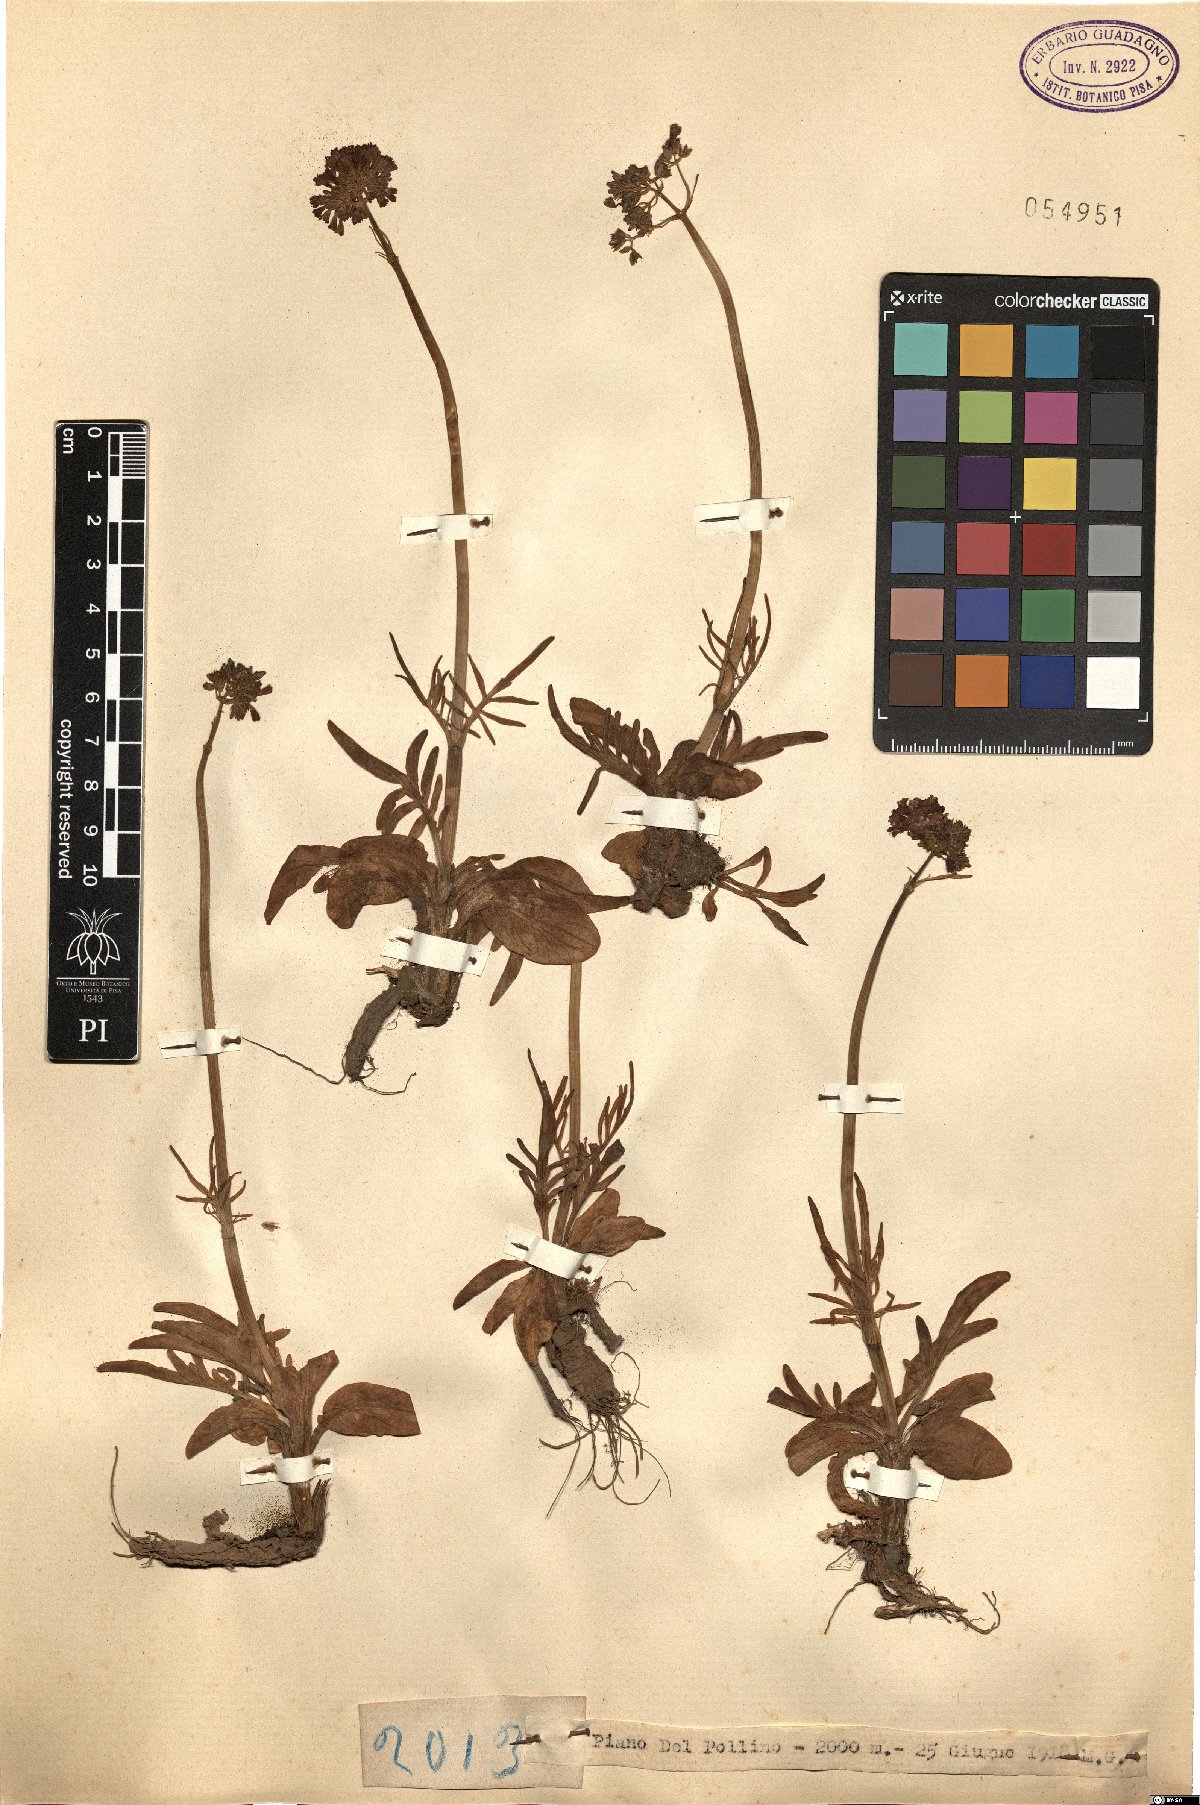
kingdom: Plantae
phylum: Tracheophyta
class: Magnoliopsida
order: Dipsacales
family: Caprifoliaceae
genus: Valeriana
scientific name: Valeriana
